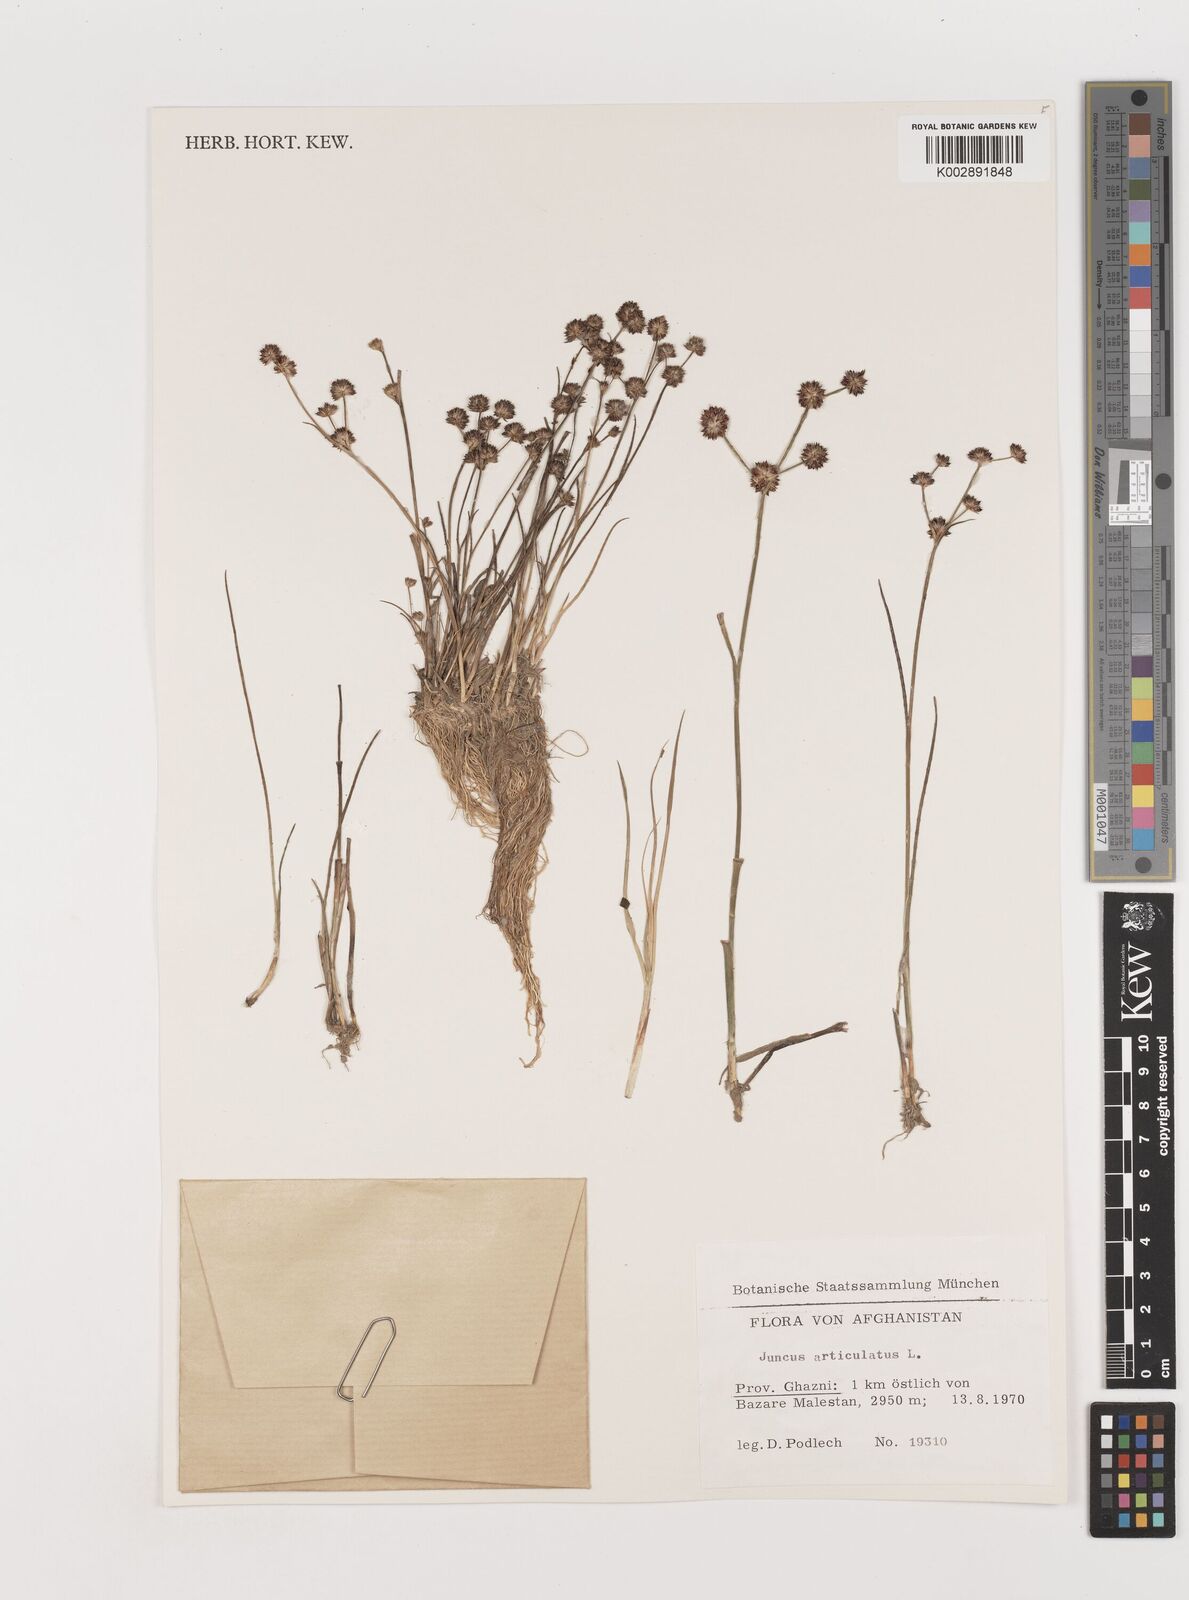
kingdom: Plantae
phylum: Tracheophyta
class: Liliopsida
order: Poales
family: Juncaceae
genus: Juncus
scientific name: Juncus articulatus
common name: Jointed rush
